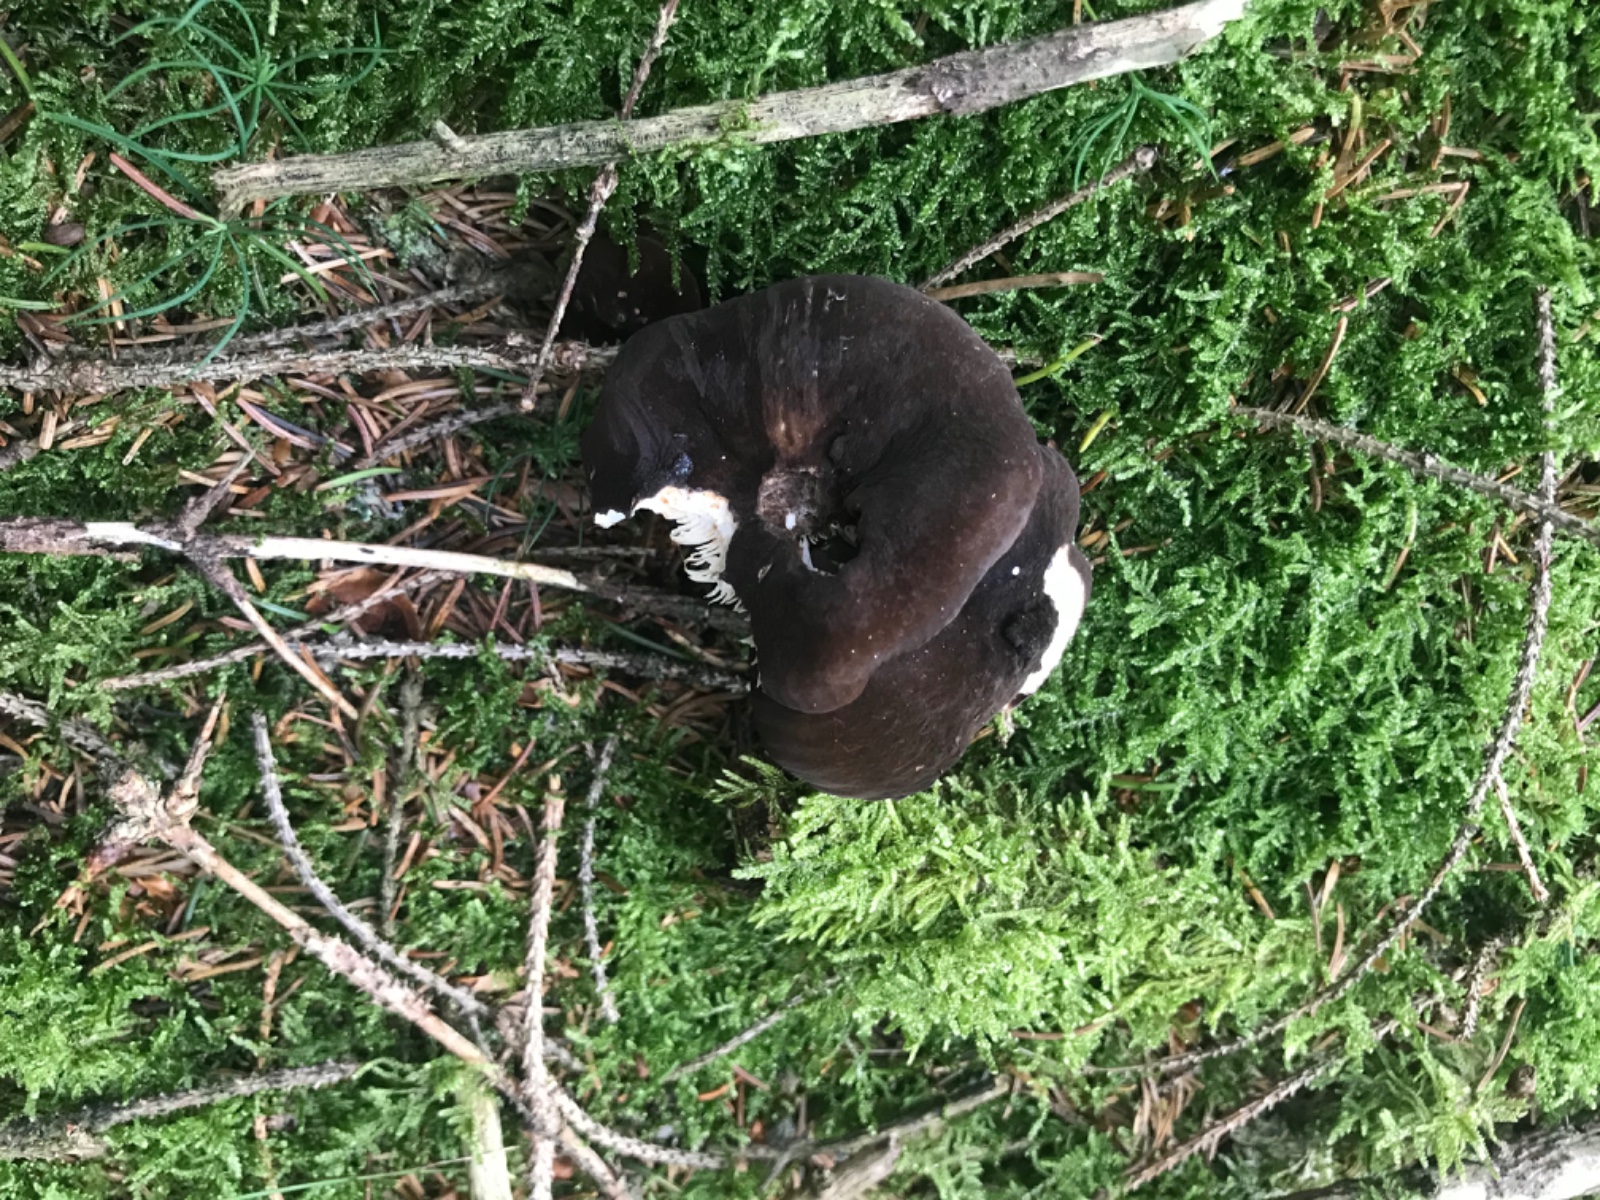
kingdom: Fungi
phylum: Basidiomycota
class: Agaricomycetes
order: Russulales
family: Russulaceae
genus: Lactarius
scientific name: Lactarius lignyotus
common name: fløjls-mælkehat
